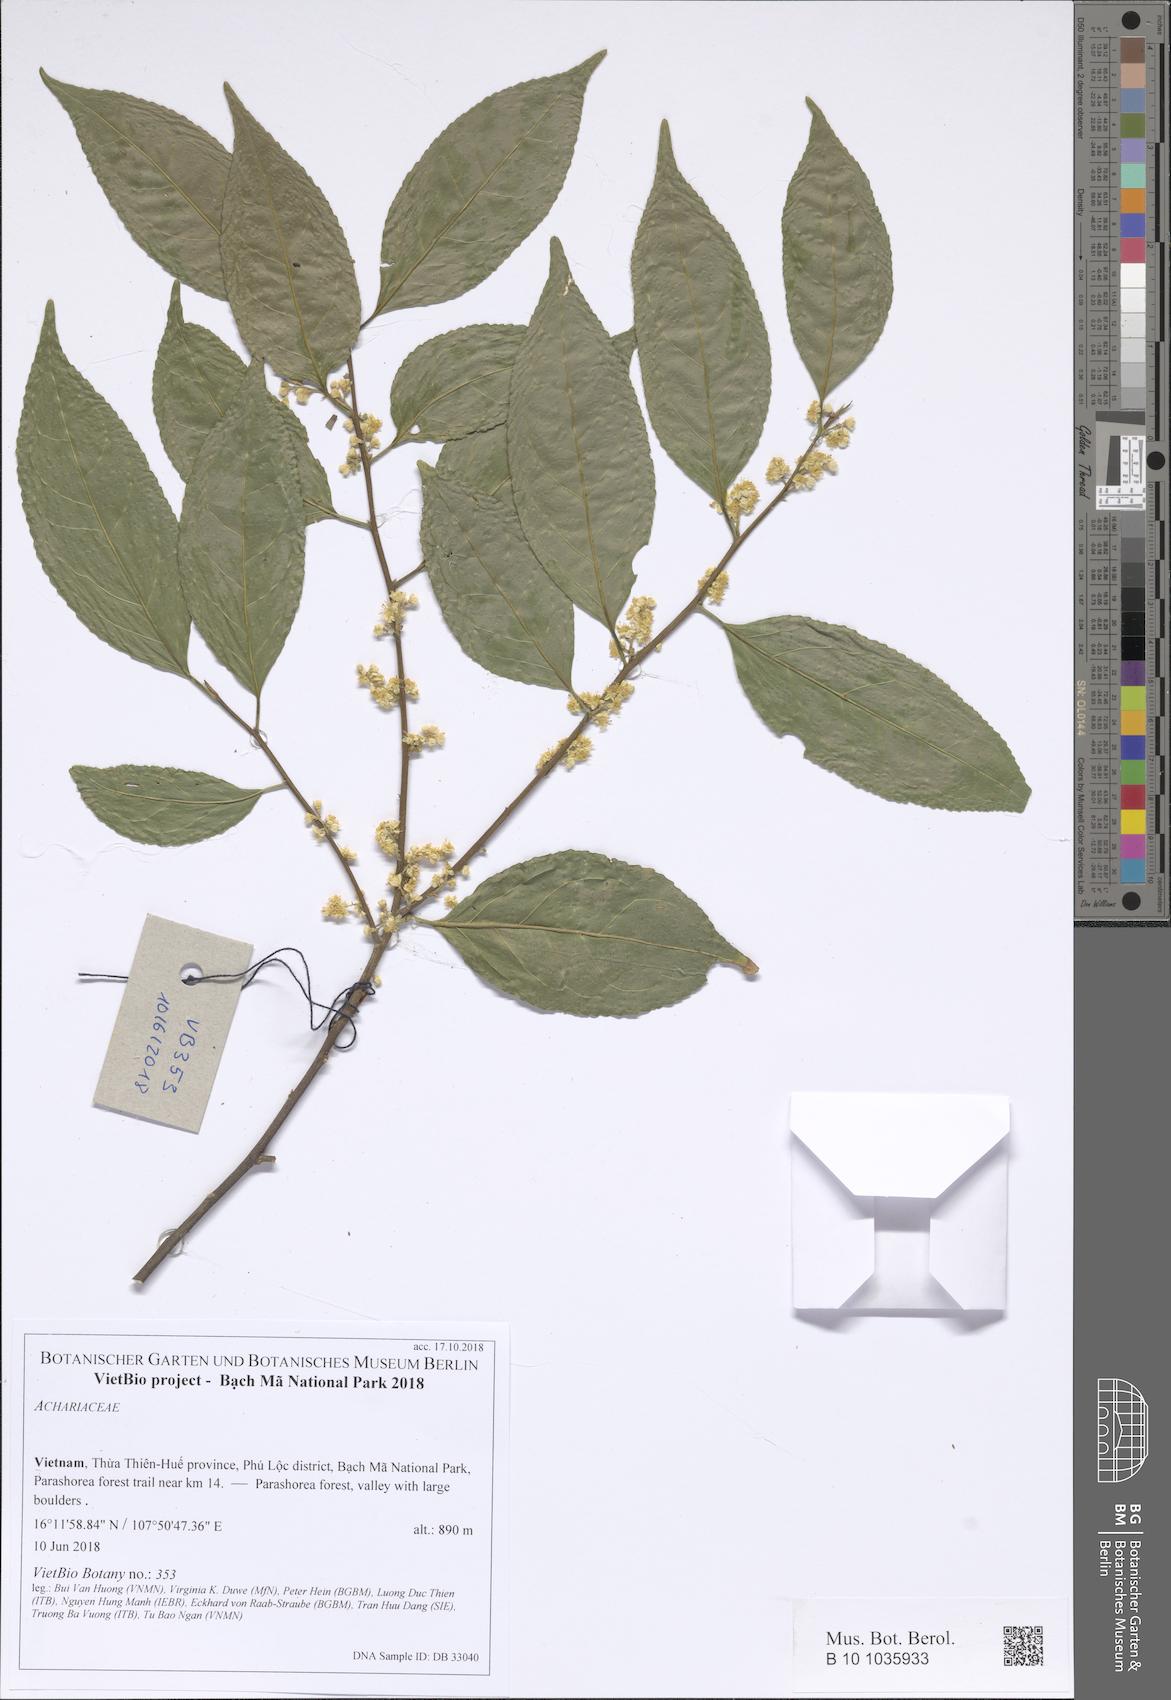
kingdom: Plantae
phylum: Tracheophyta
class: Magnoliopsida
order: Malpighiales
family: Achariaceae
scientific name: Achariaceae
